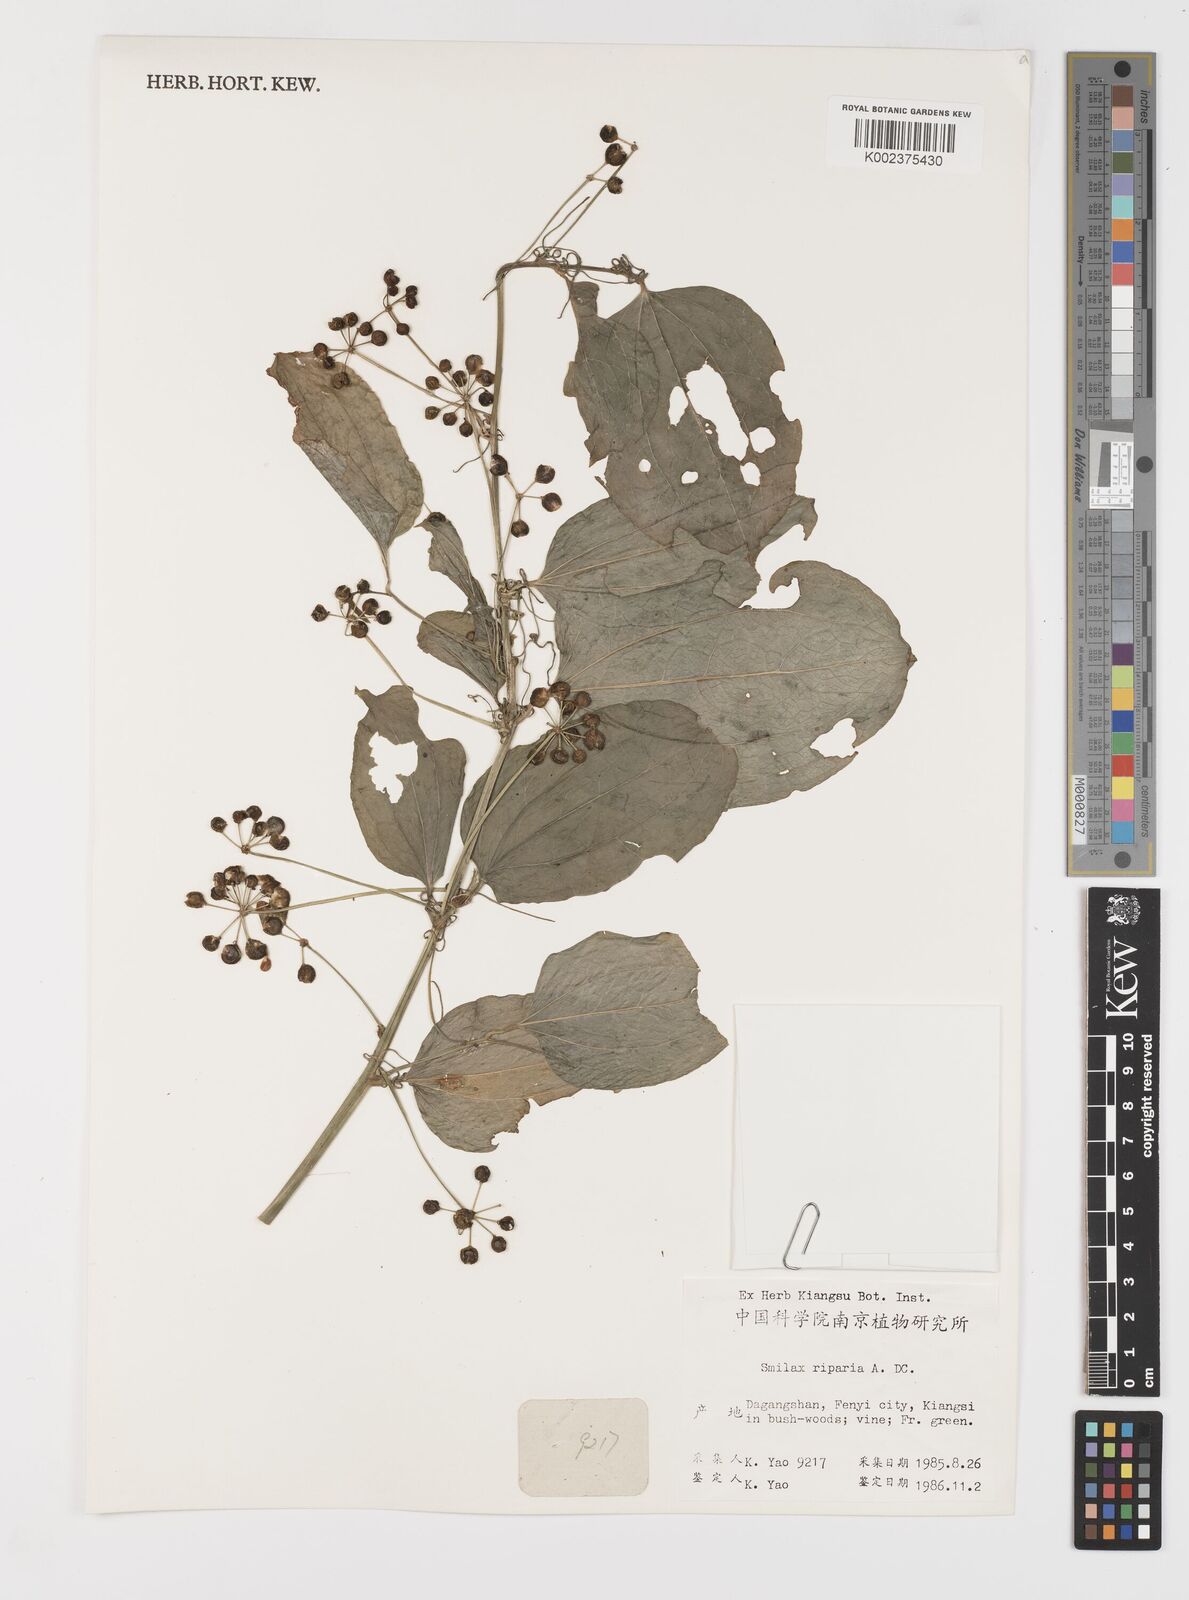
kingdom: Plantae
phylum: Tracheophyta
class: Liliopsida
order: Liliales
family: Smilacaceae
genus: Smilax
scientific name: Smilax riparia
